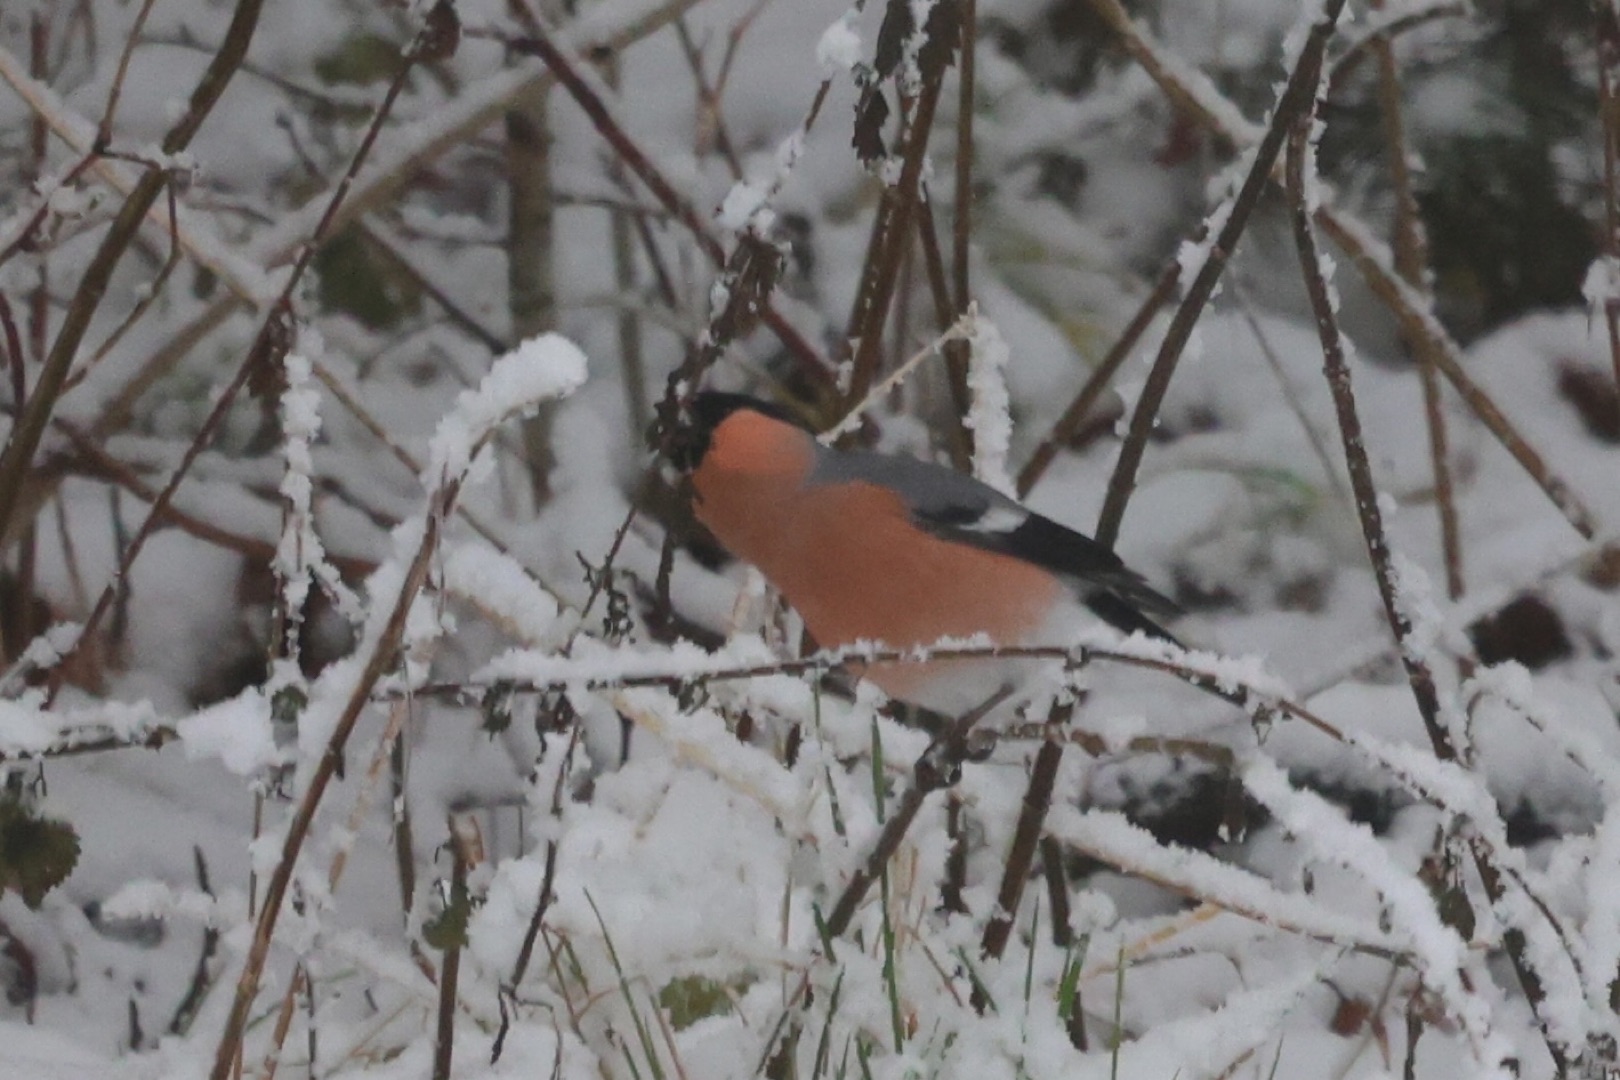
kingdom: Animalia
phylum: Chordata
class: Aves
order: Passeriformes
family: Fringillidae
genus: Pyrrhula
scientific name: Pyrrhula pyrrhula
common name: Dompap
